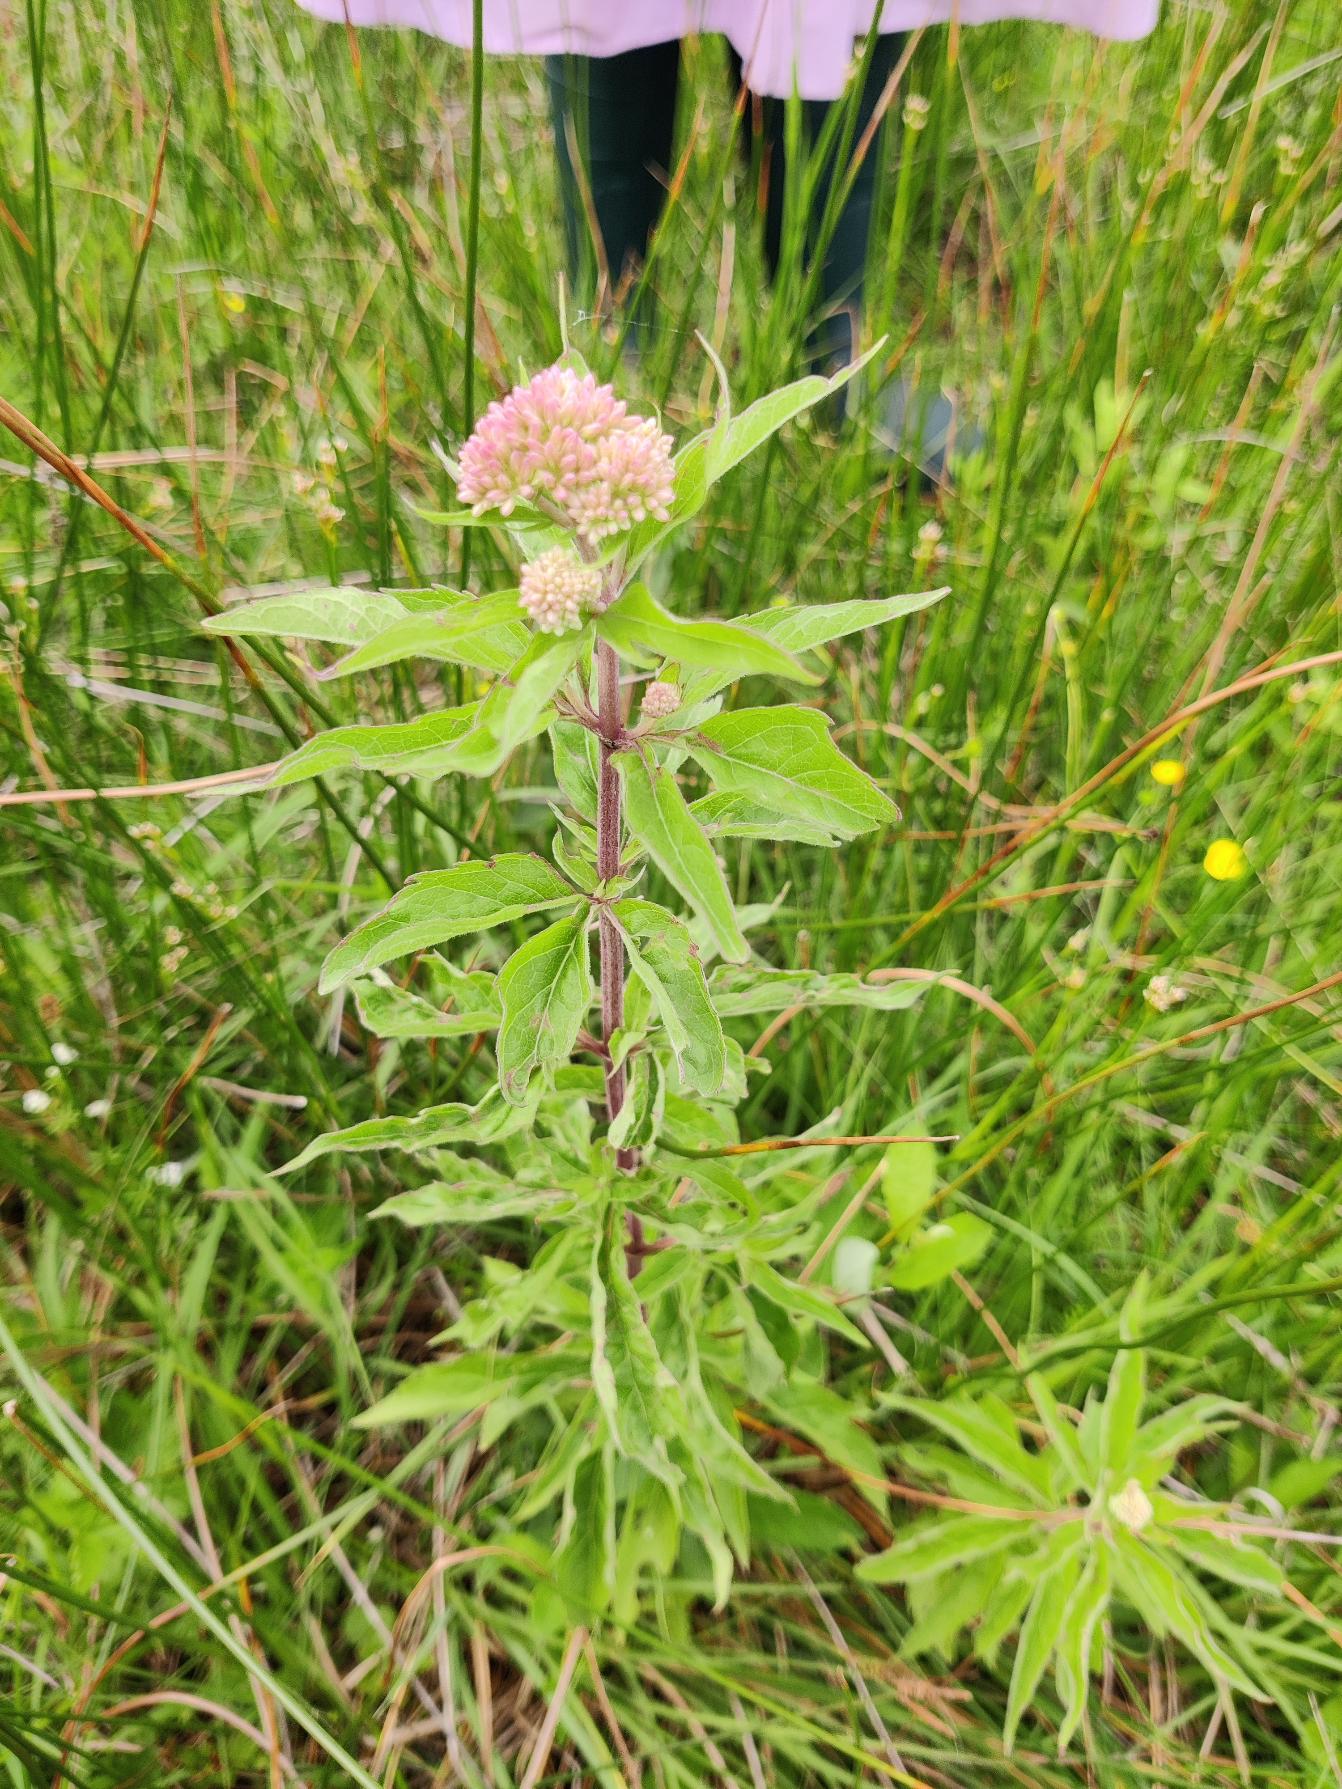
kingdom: Plantae
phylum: Tracheophyta
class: Magnoliopsida
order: Asterales
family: Asteraceae
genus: Eupatorium
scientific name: Eupatorium cannabinum
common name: Hjortetrøst
